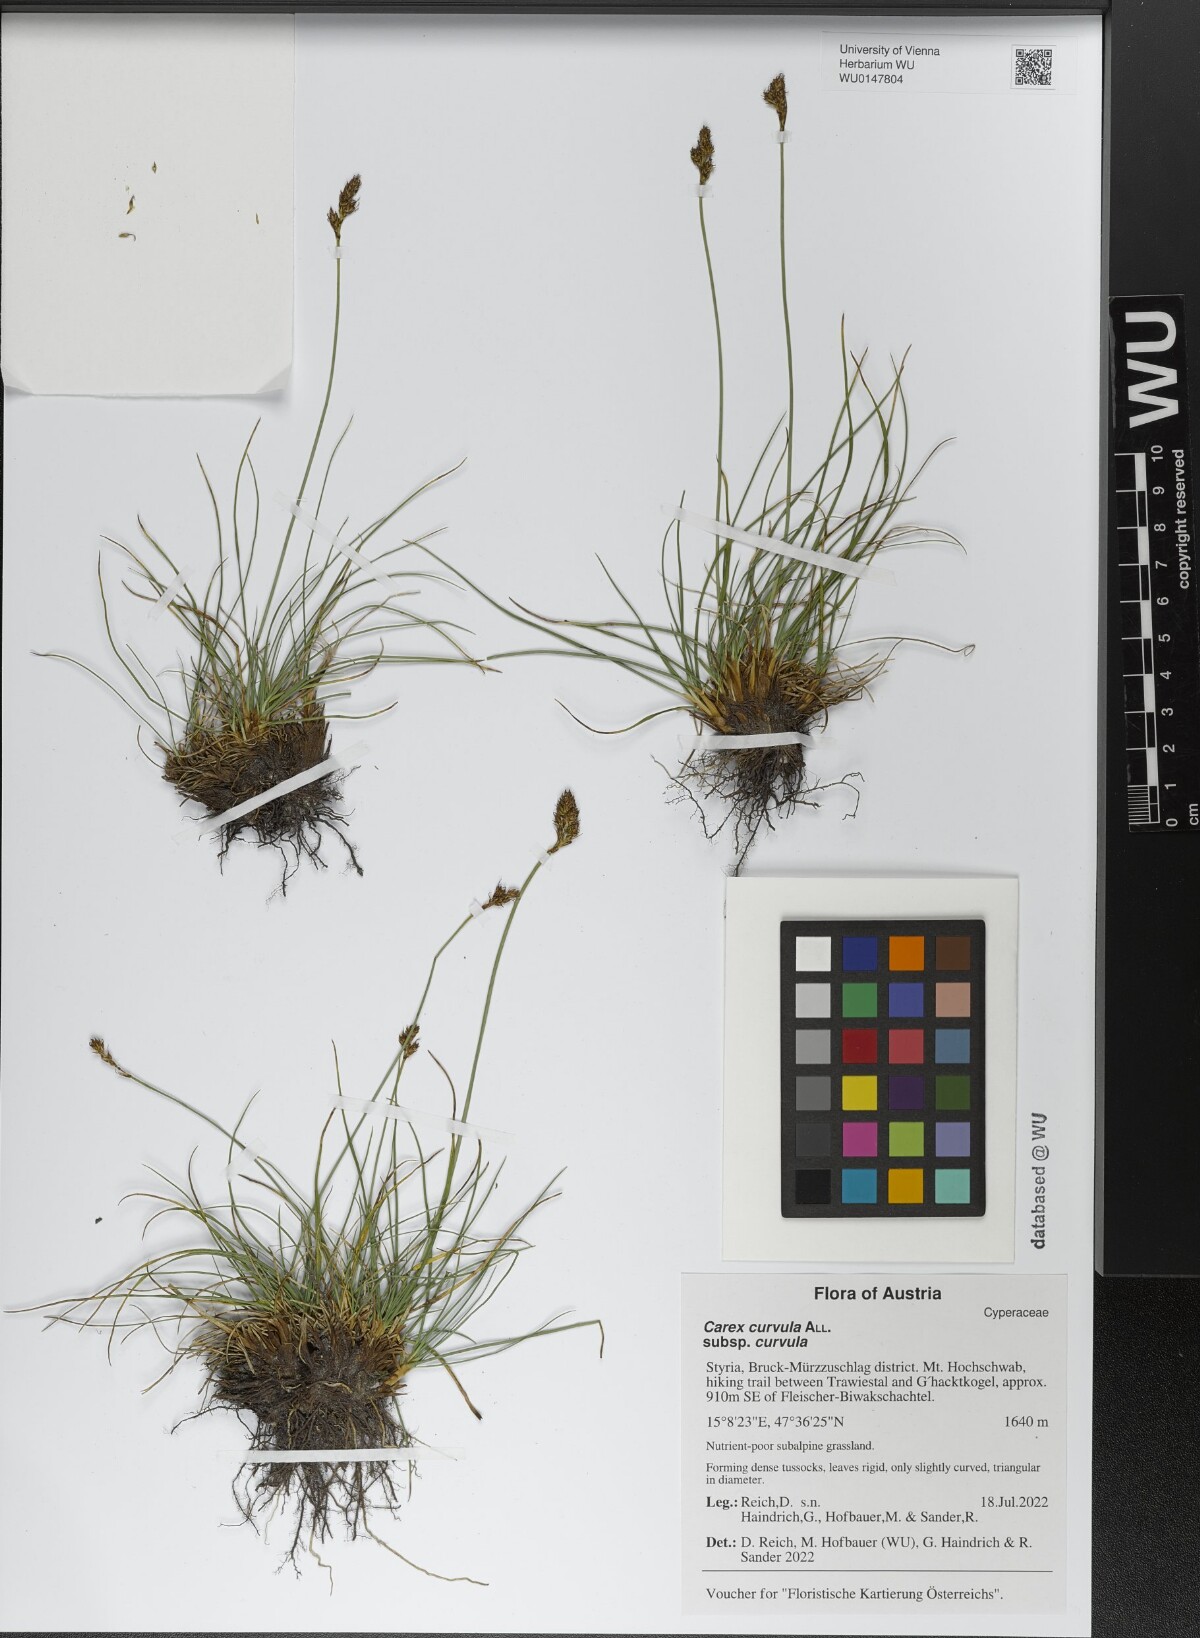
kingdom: Plantae
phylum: Tracheophyta
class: Liliopsida
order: Poales
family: Cyperaceae
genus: Carex
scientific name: Carex curvula
